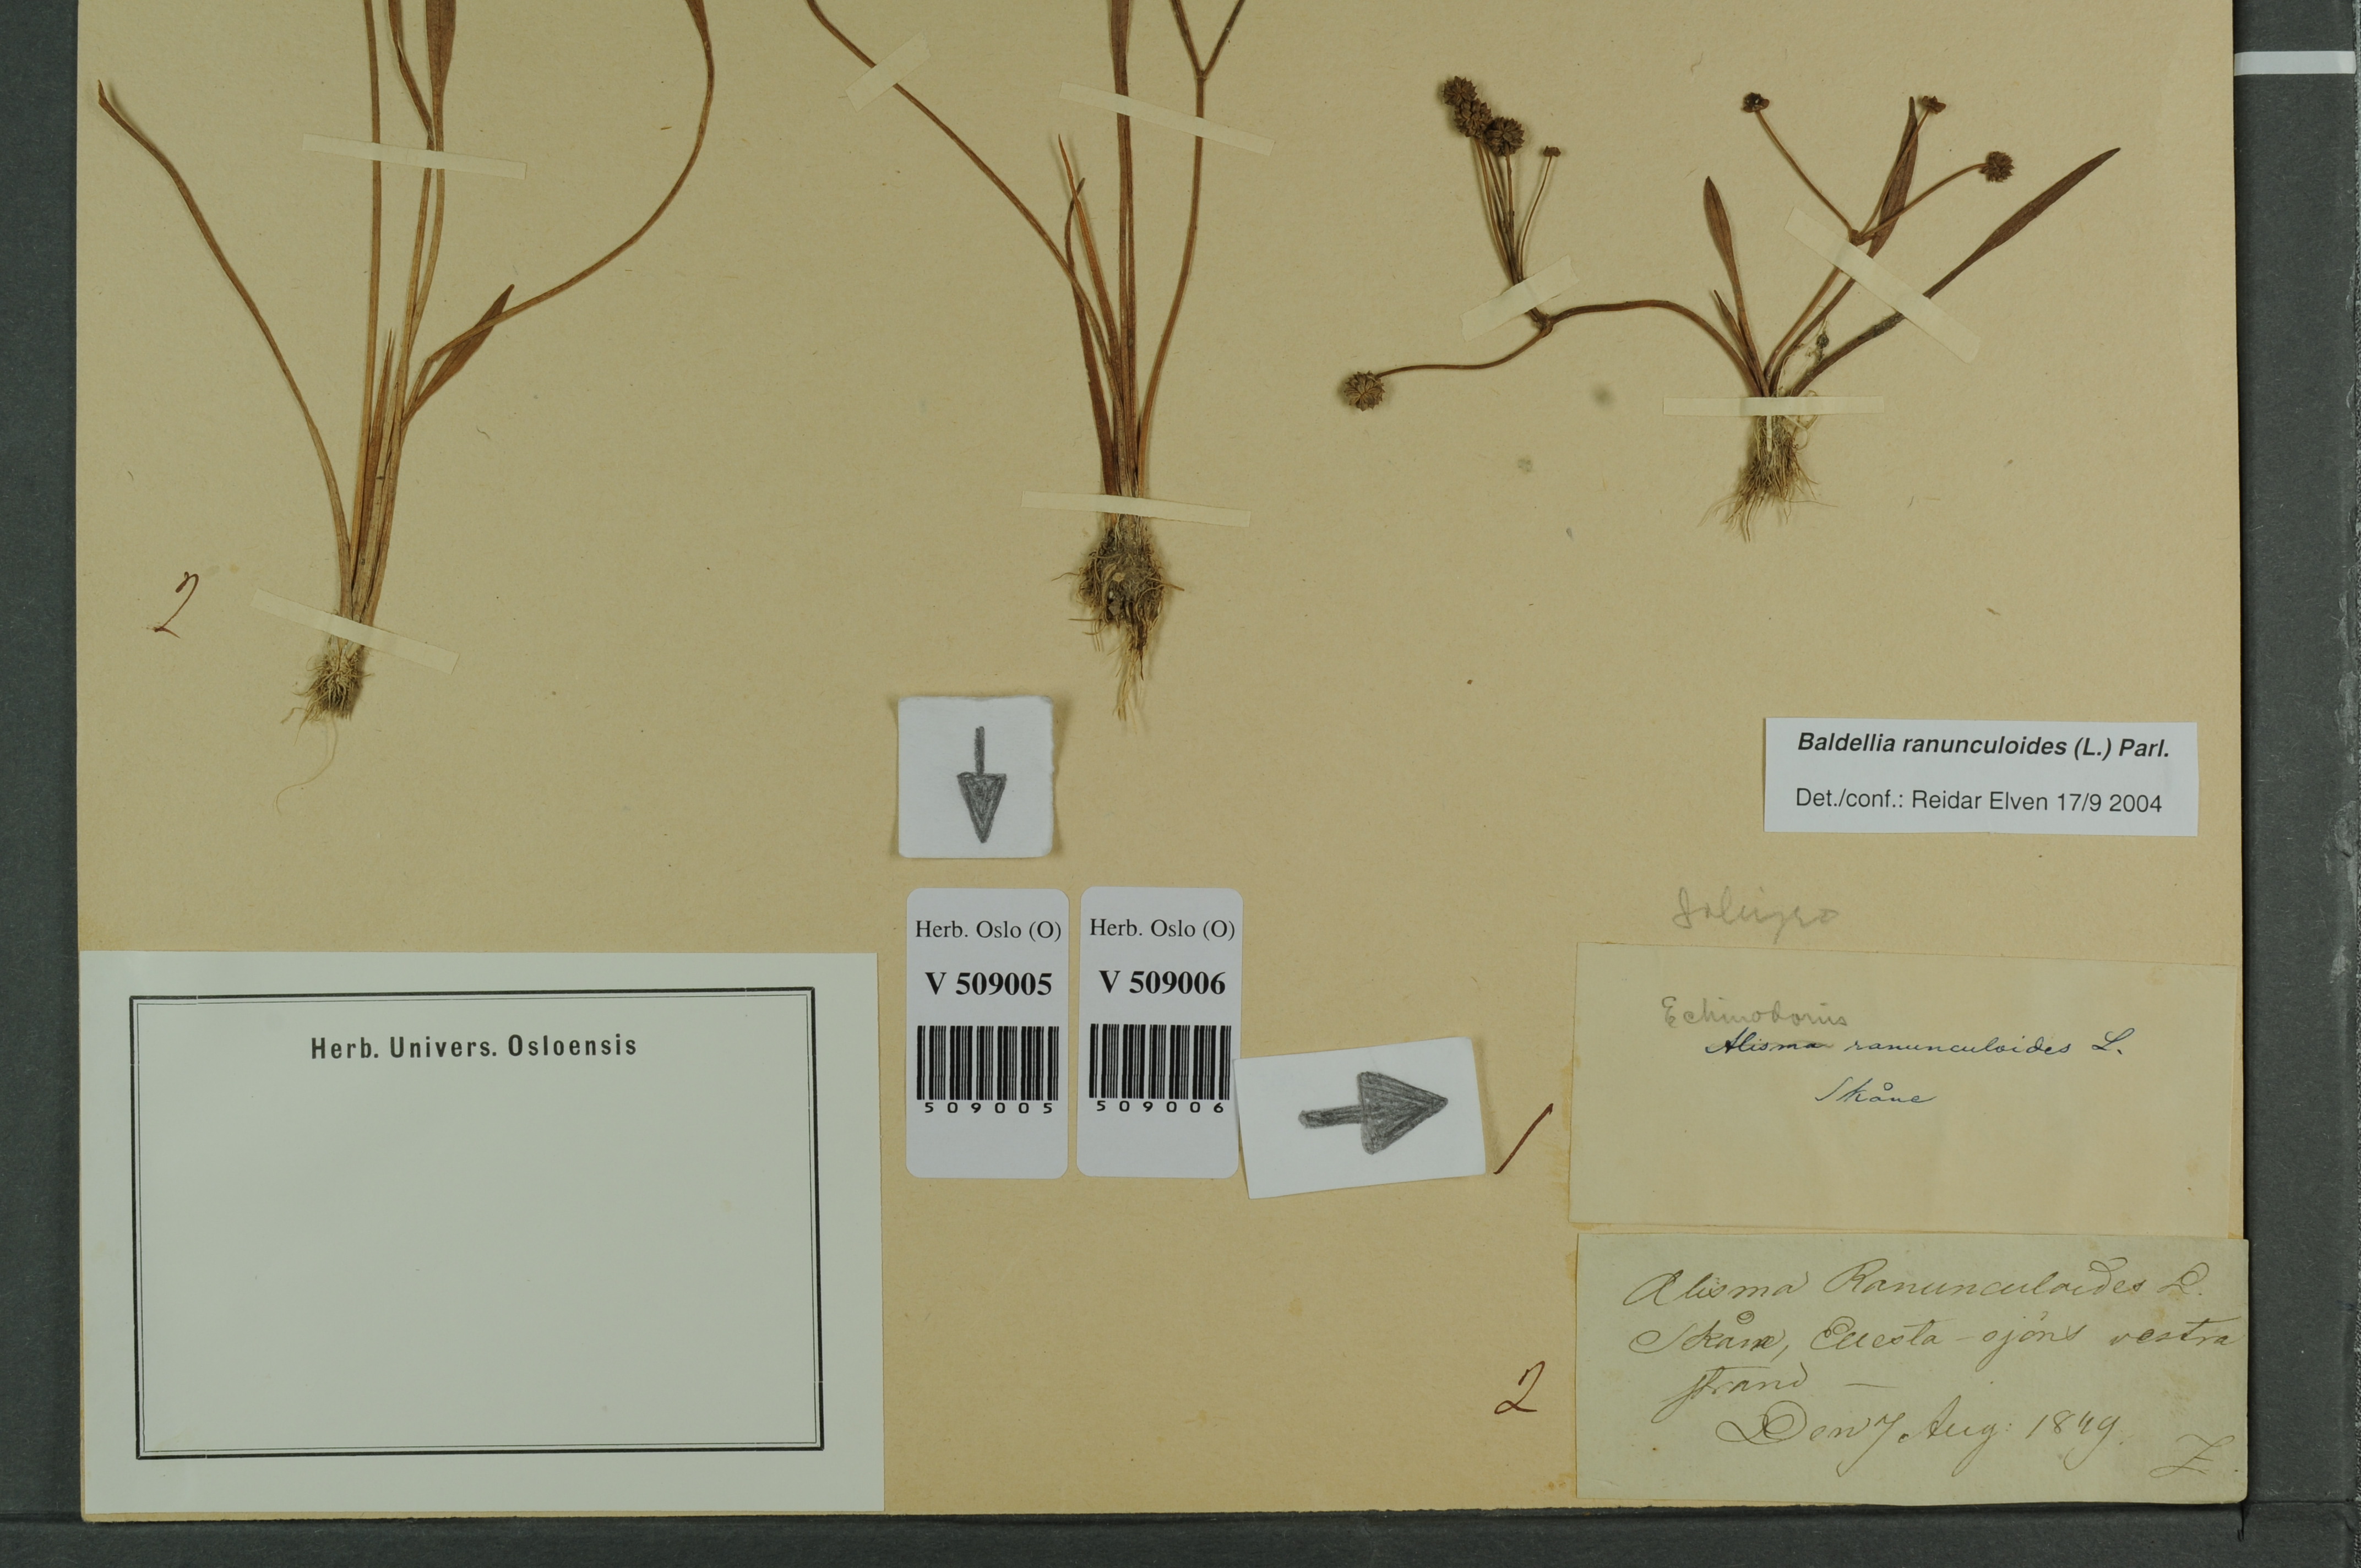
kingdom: Plantae
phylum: Tracheophyta
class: Liliopsida
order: Alismatales
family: Alismataceae
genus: Baldellia
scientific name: Baldellia ranunculoides
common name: Lesser water-plantain
